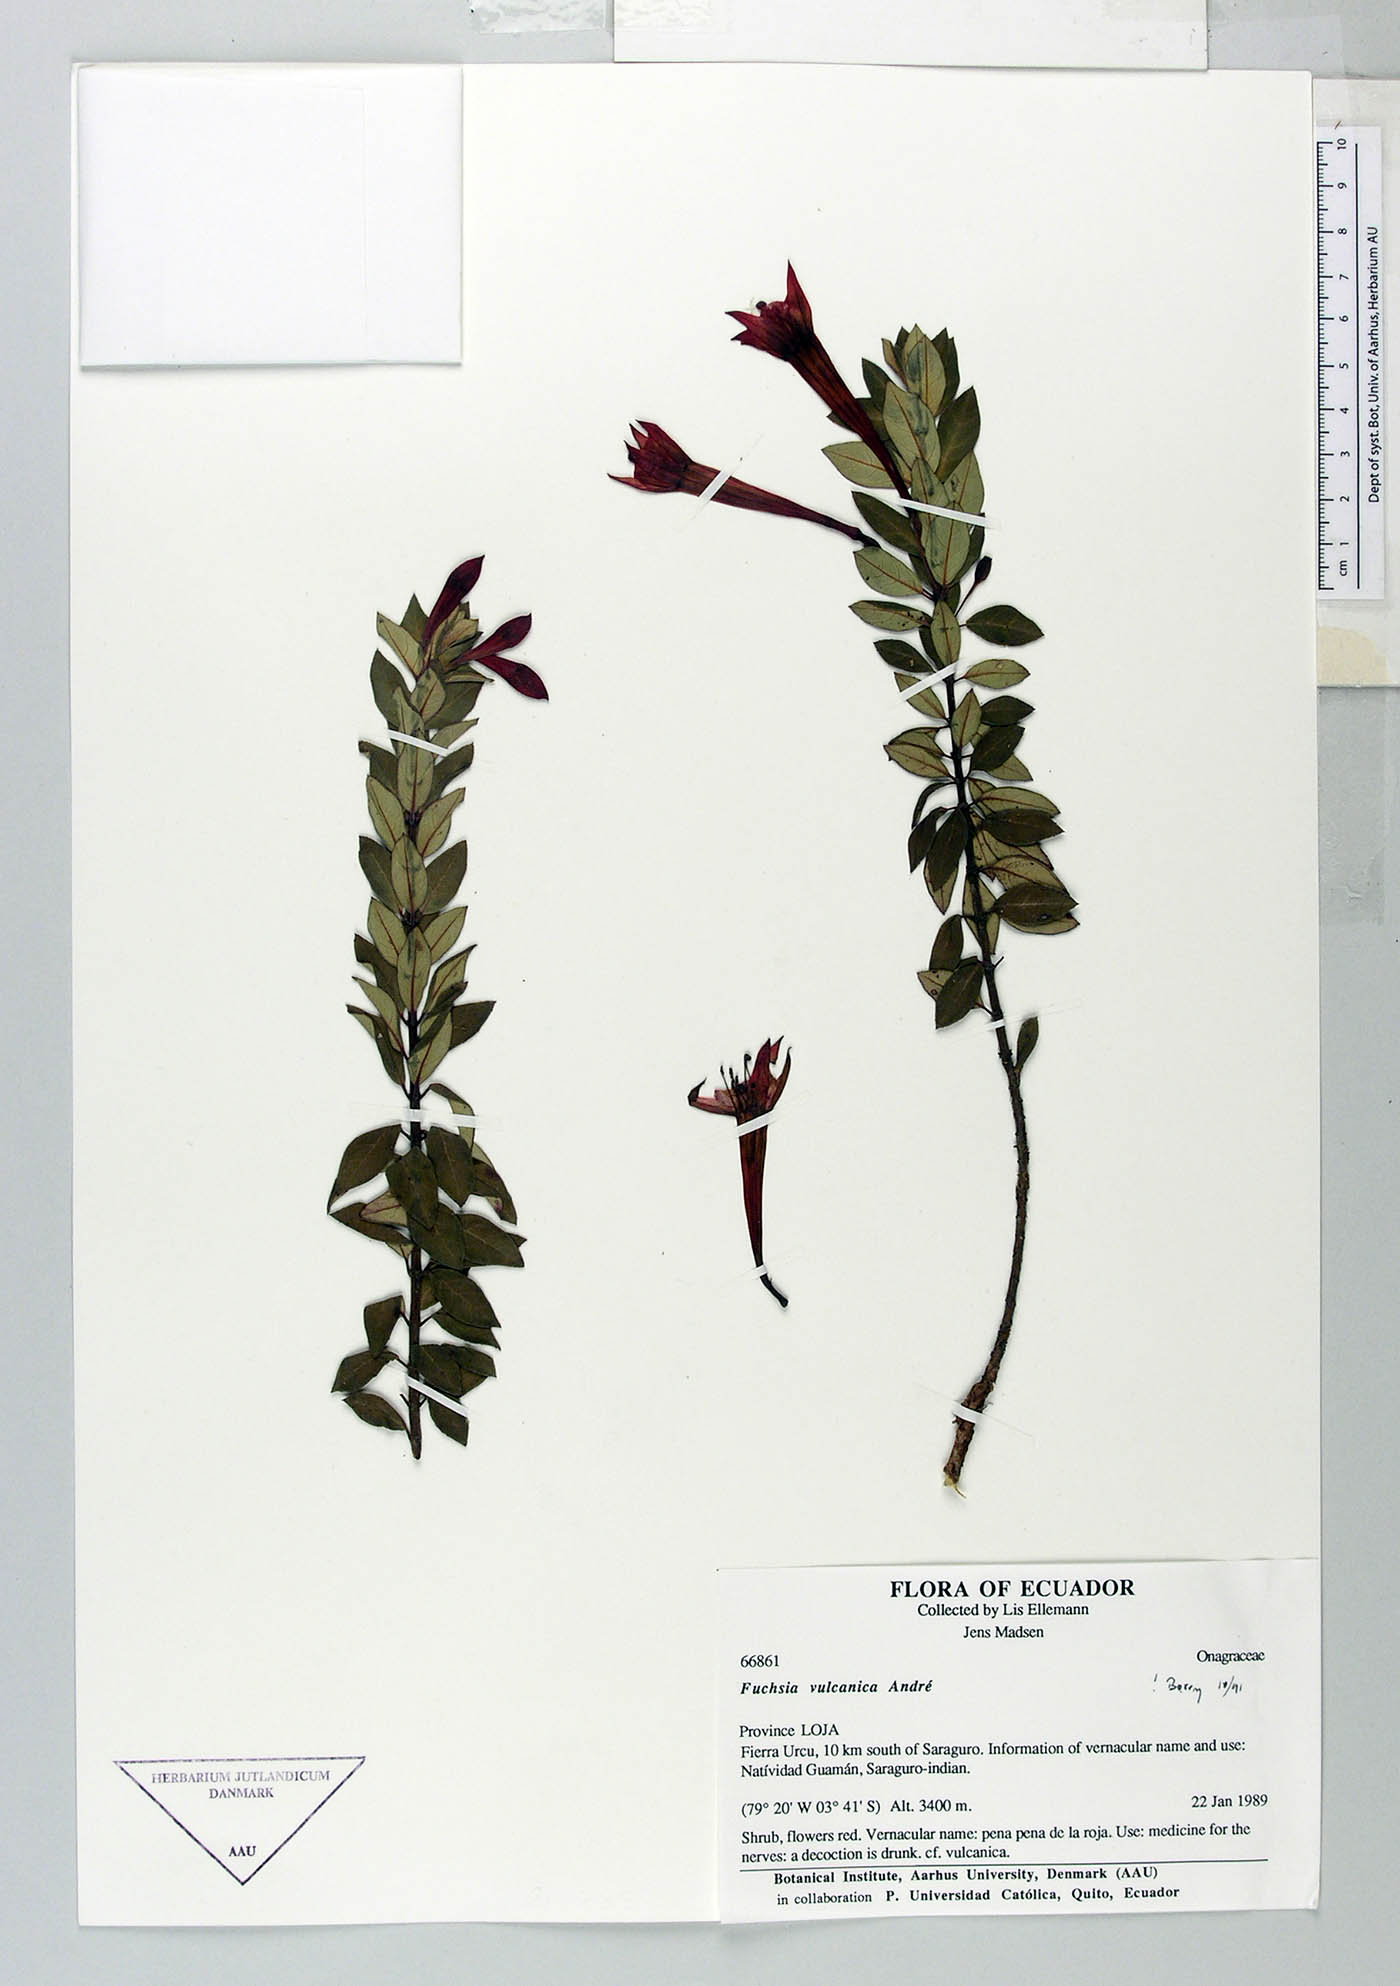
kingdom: Plantae
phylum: Tracheophyta
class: Magnoliopsida
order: Myrtales
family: Onagraceae
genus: Fuchsia
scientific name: Fuchsia vulcanica
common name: Volcan's fuchsia
